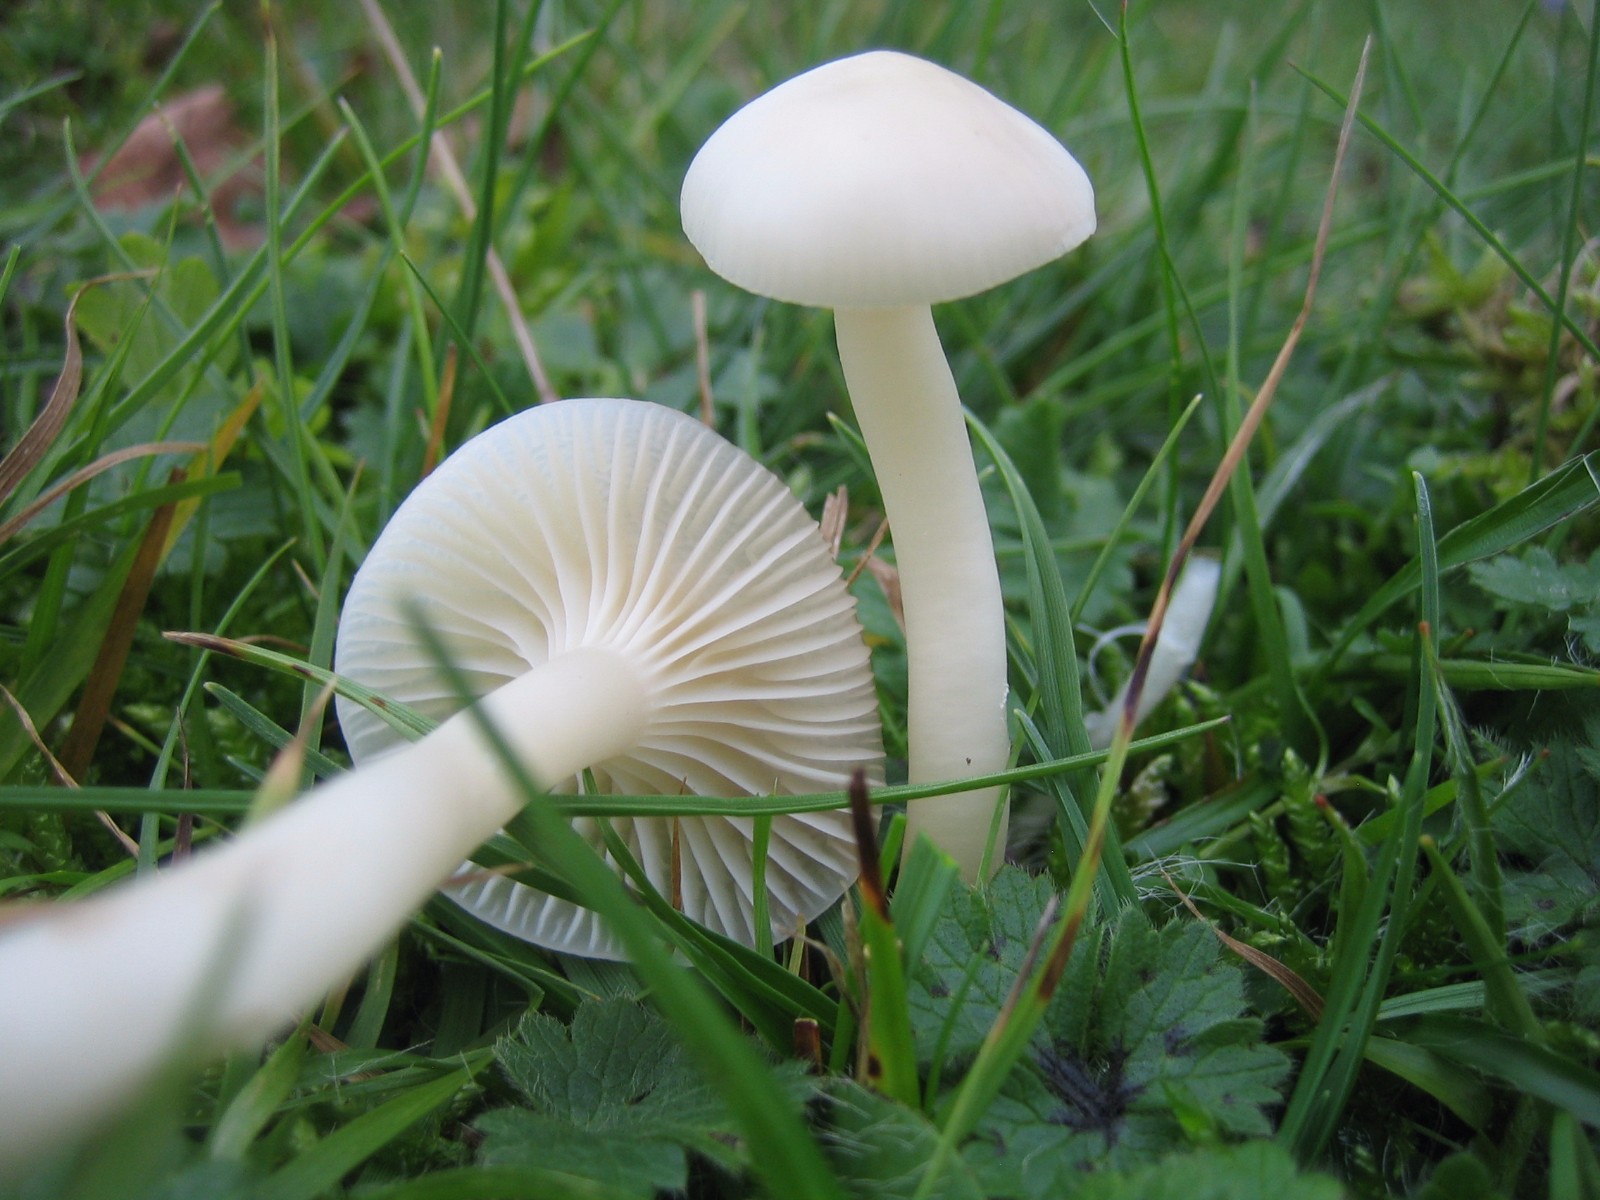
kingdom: Fungi
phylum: Basidiomycota
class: Agaricomycetes
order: Agaricales
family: Hygrophoraceae
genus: Cuphophyllus
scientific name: Cuphophyllus virgineus
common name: snehvid vokshat
